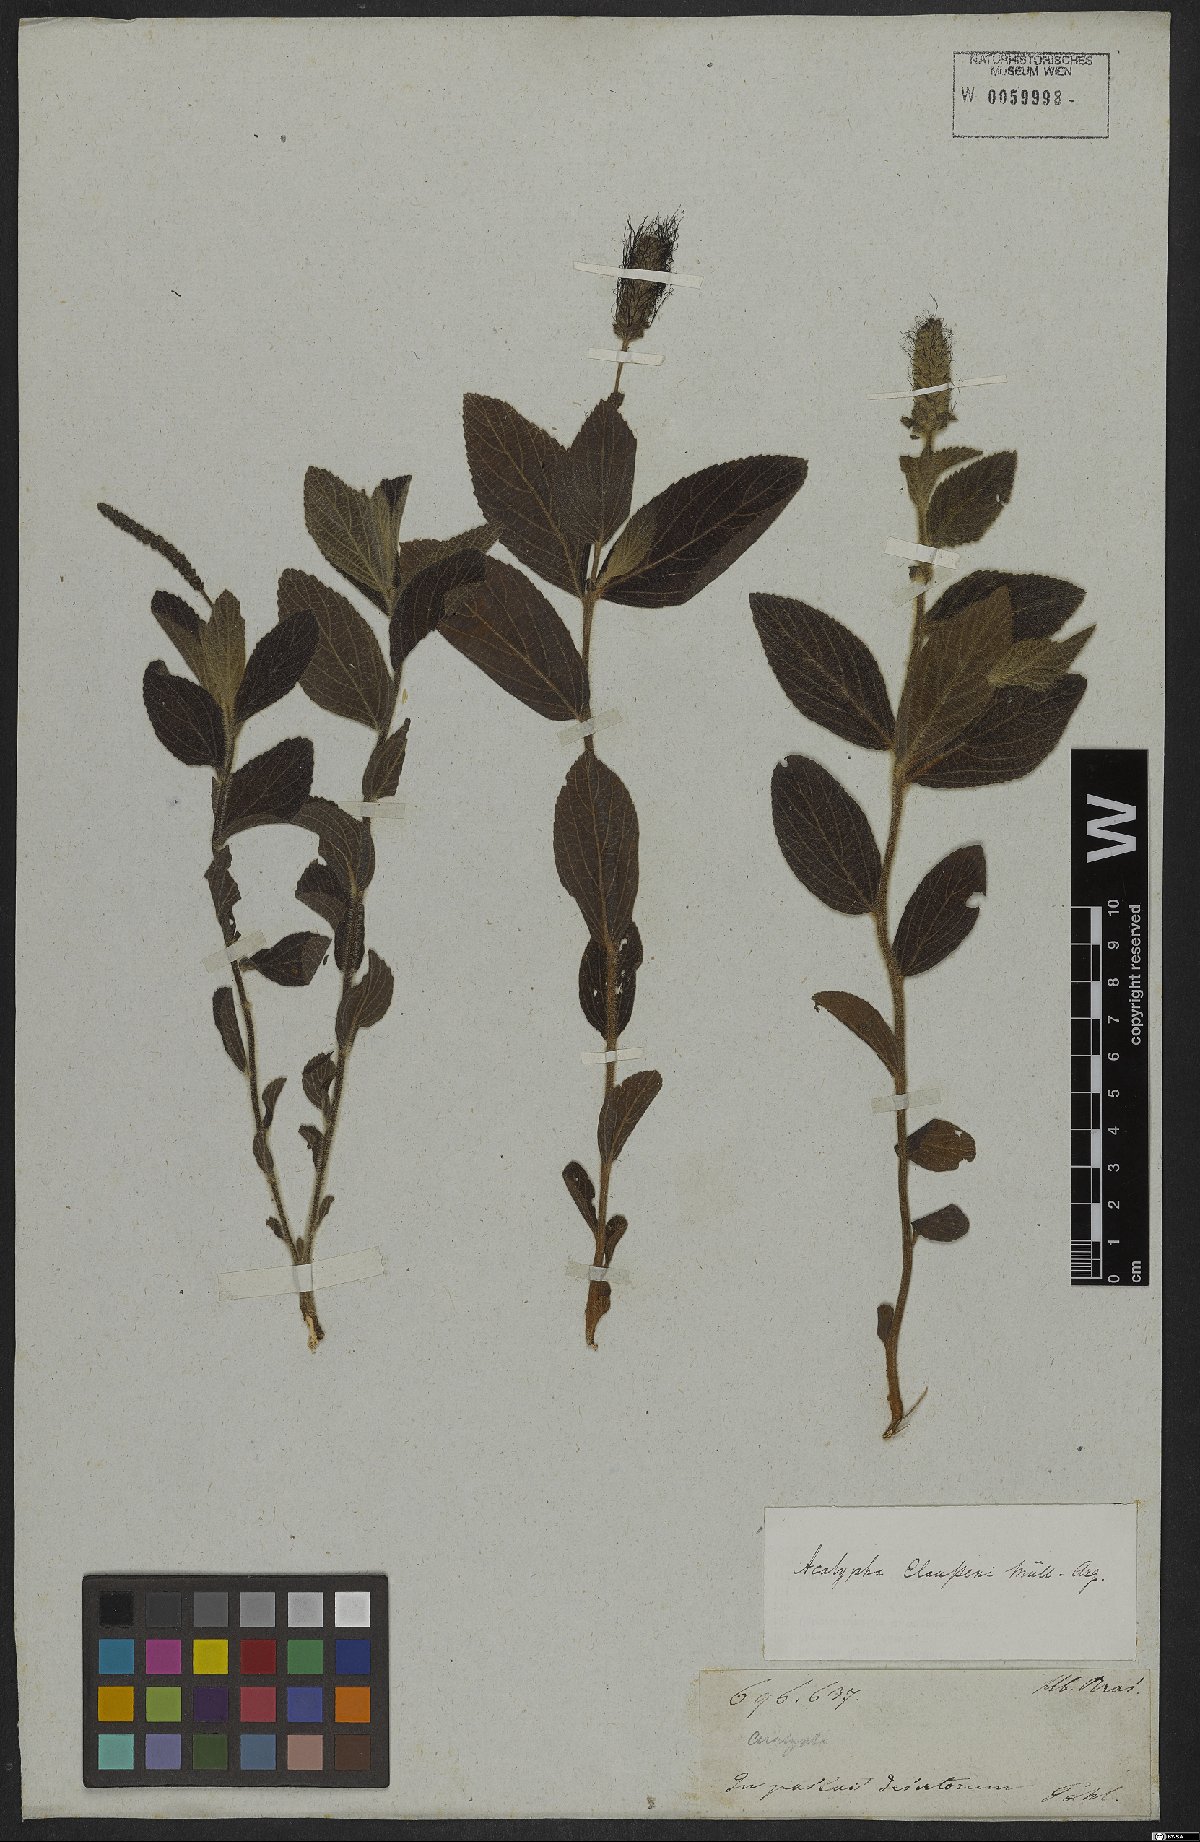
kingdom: Plantae
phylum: Tracheophyta
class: Magnoliopsida
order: Malpighiales
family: Euphorbiaceae
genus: Acalypha
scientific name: Acalypha claussenii
